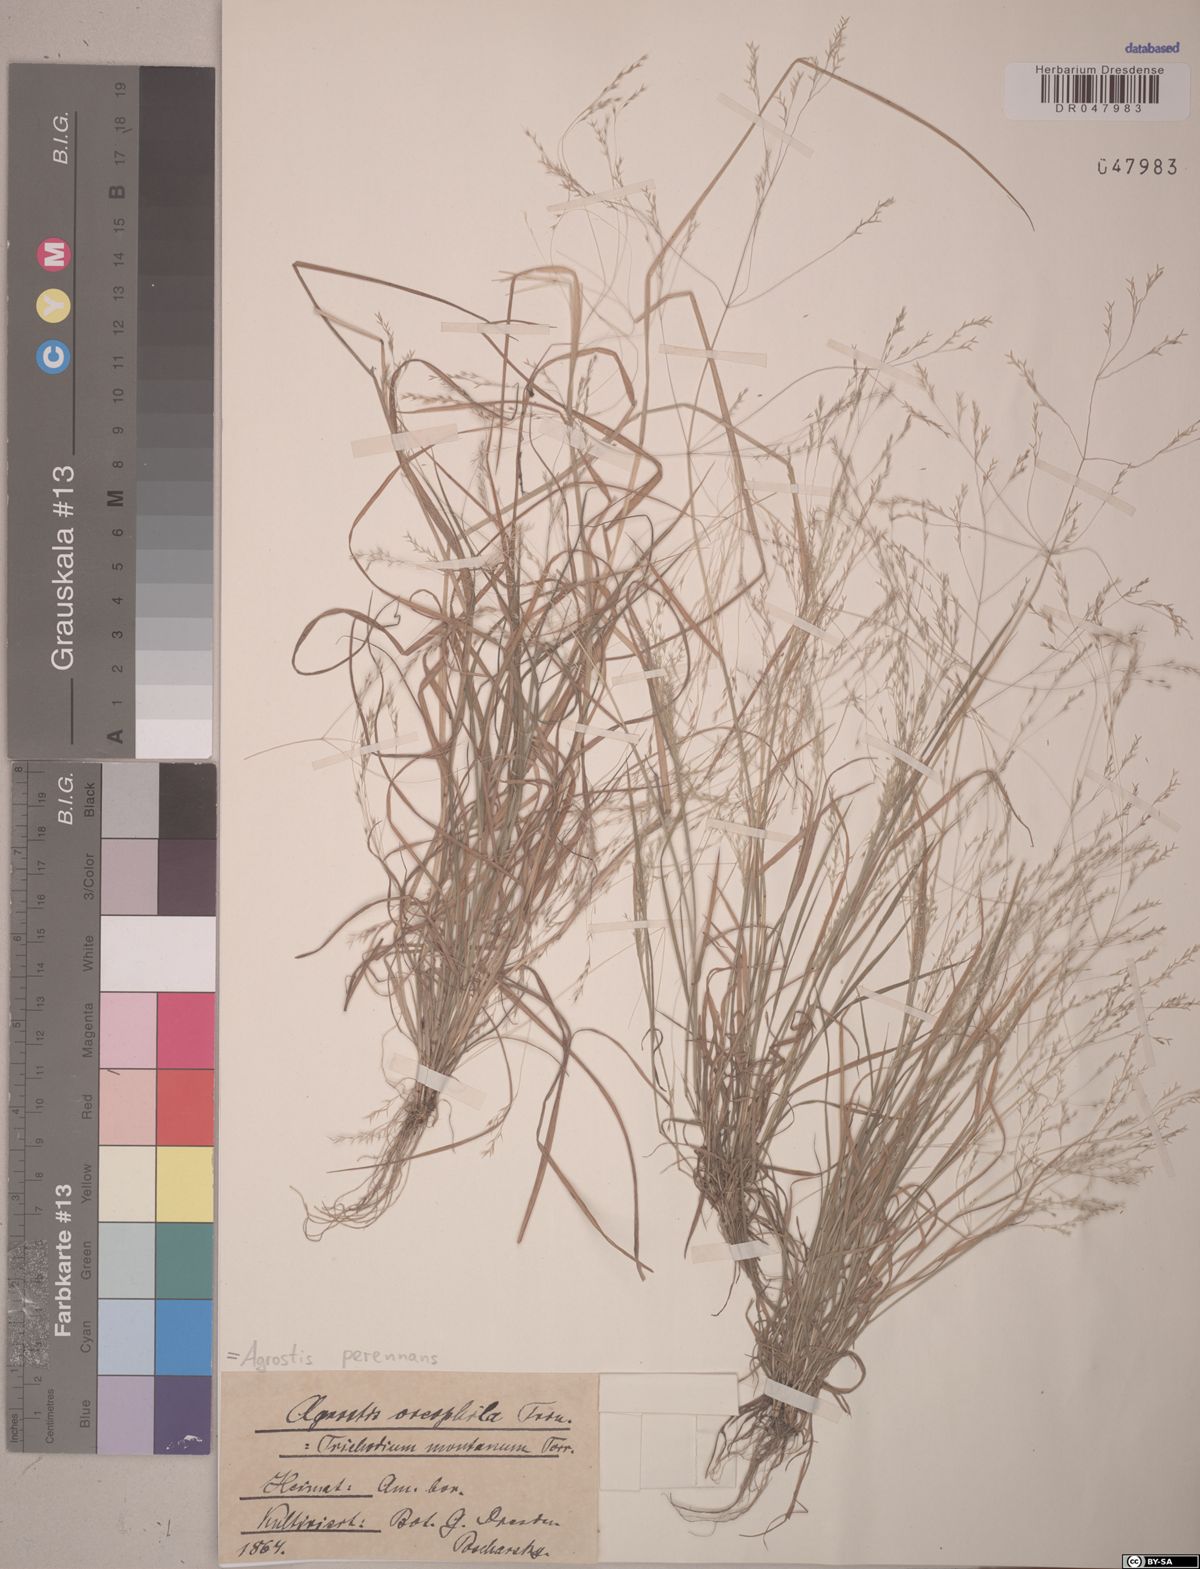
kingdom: Plantae
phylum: Tracheophyta
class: Liliopsida
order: Poales
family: Poaceae
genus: Agrostis
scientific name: Agrostis perennans
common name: Autumn bent
